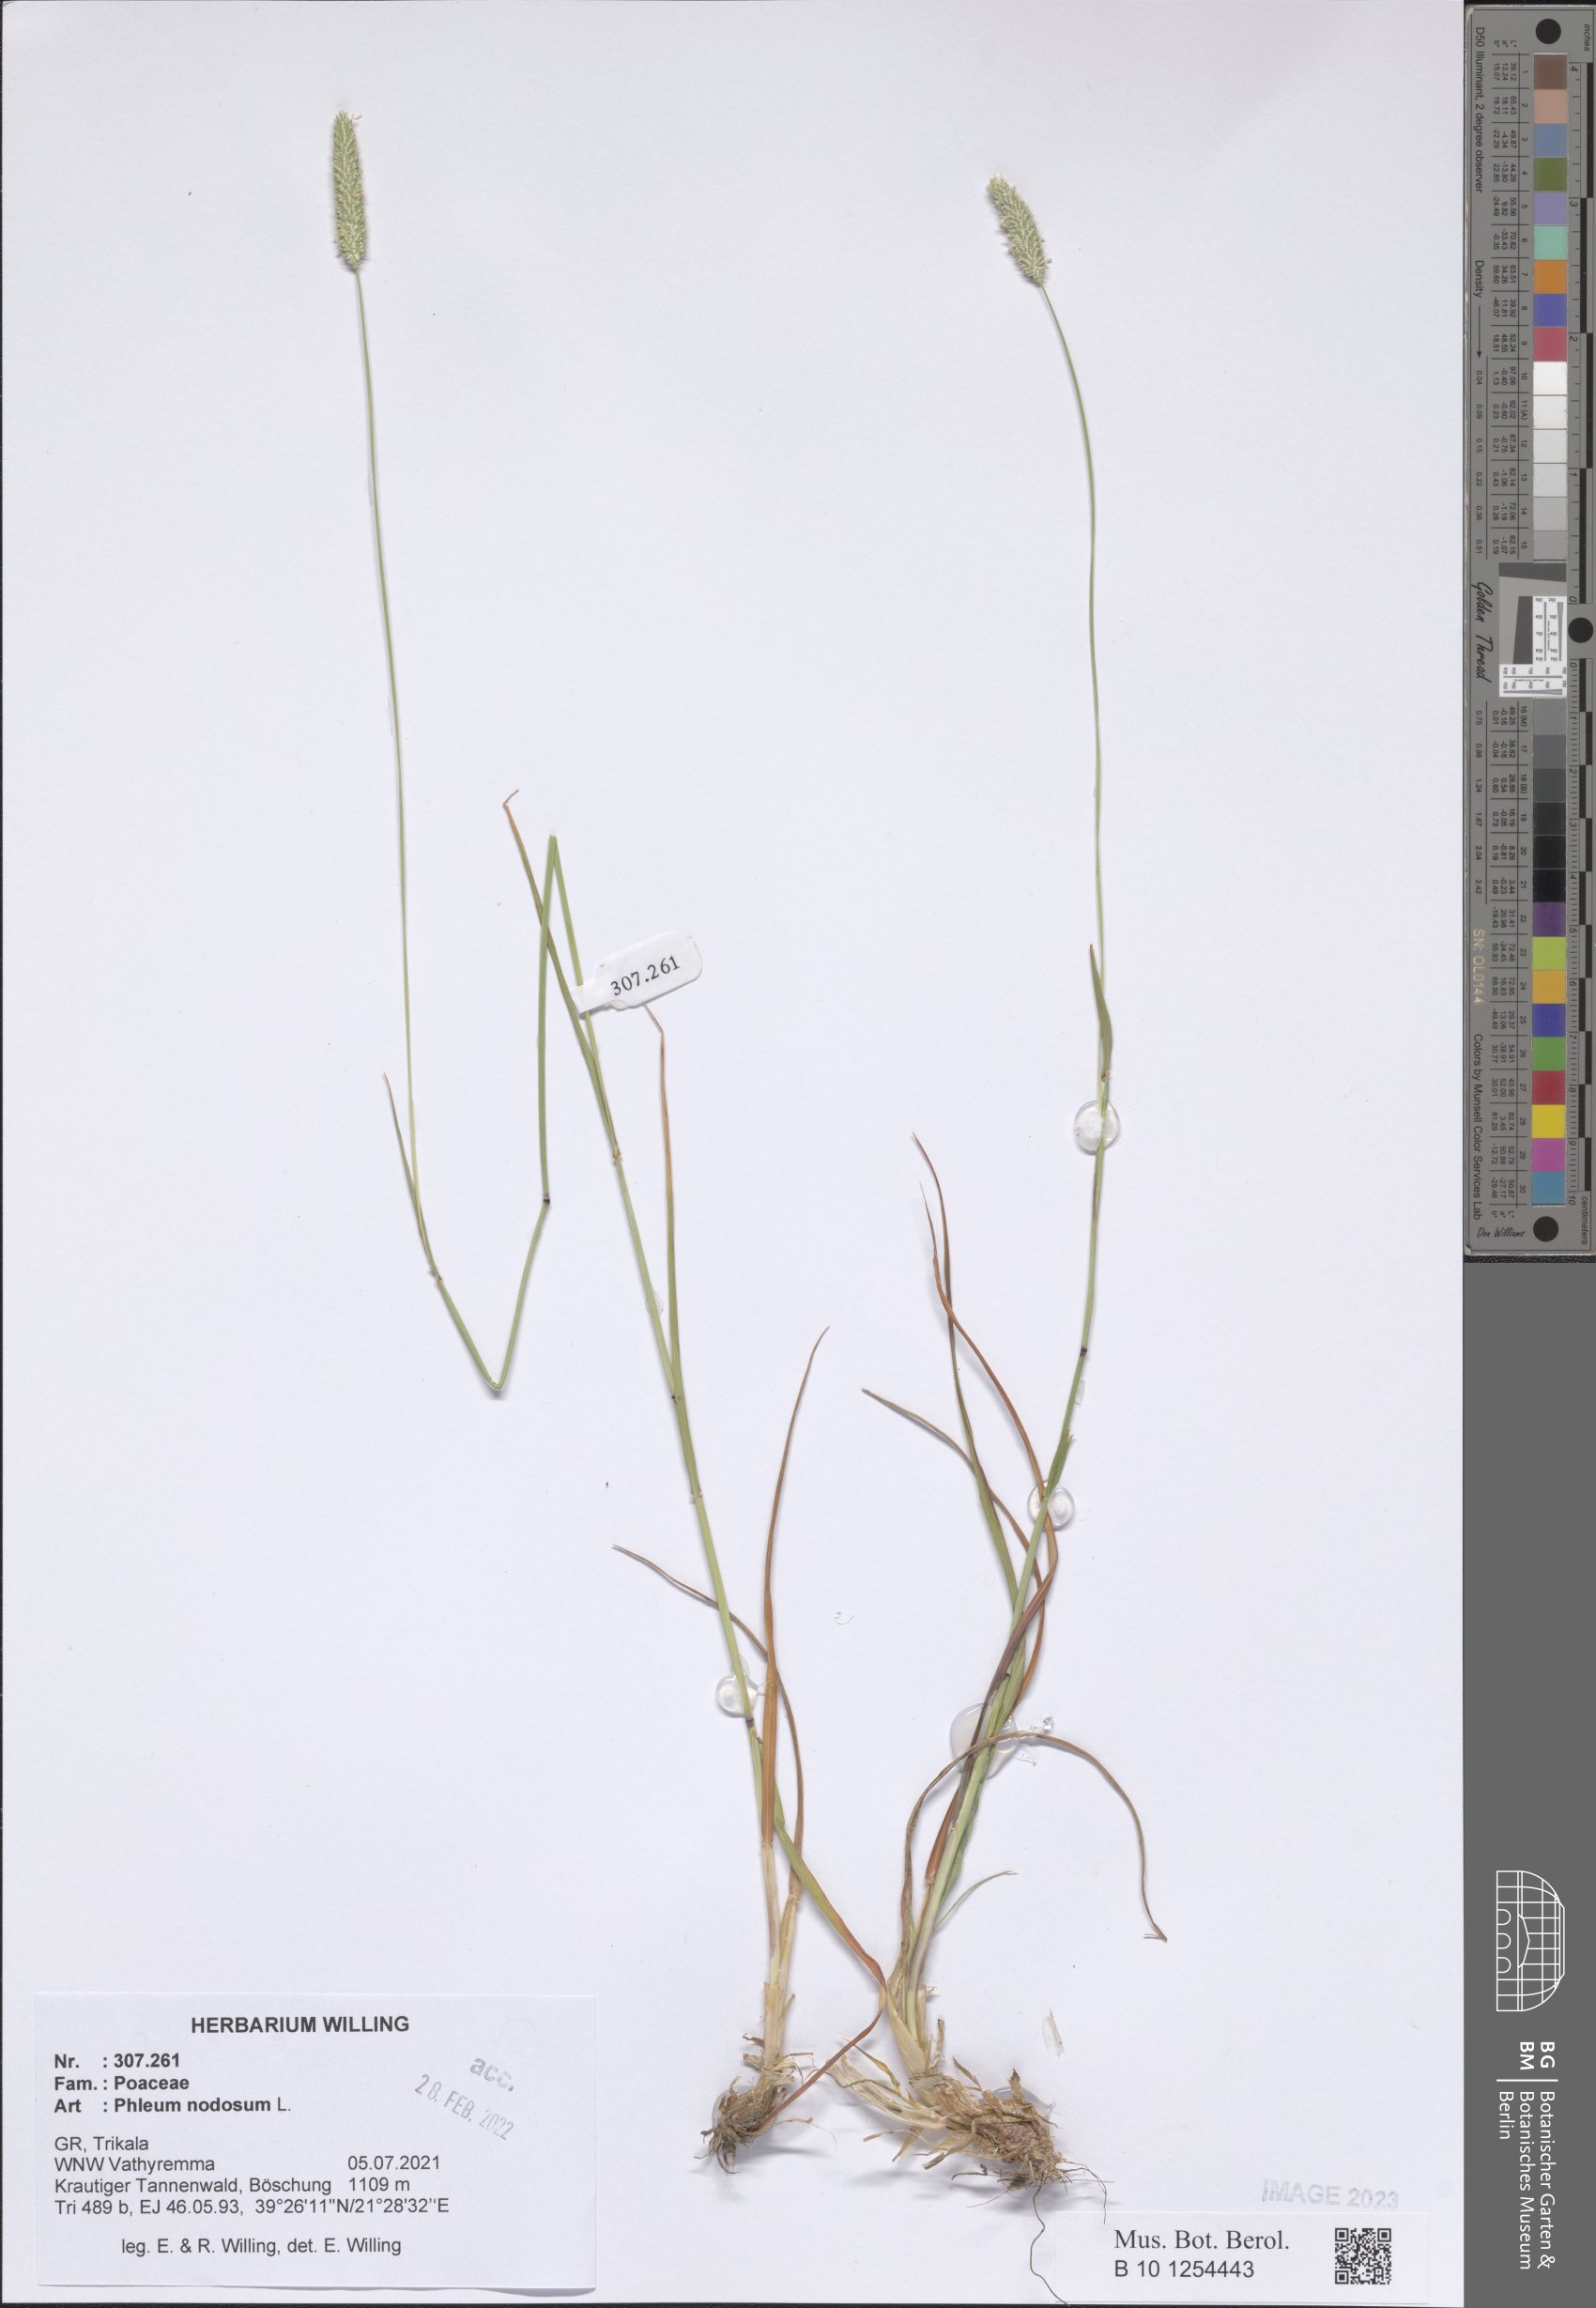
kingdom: Plantae
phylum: Tracheophyta
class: Liliopsida
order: Poales
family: Poaceae
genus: Phleum
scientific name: Phleum pratense
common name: Timothy grass
